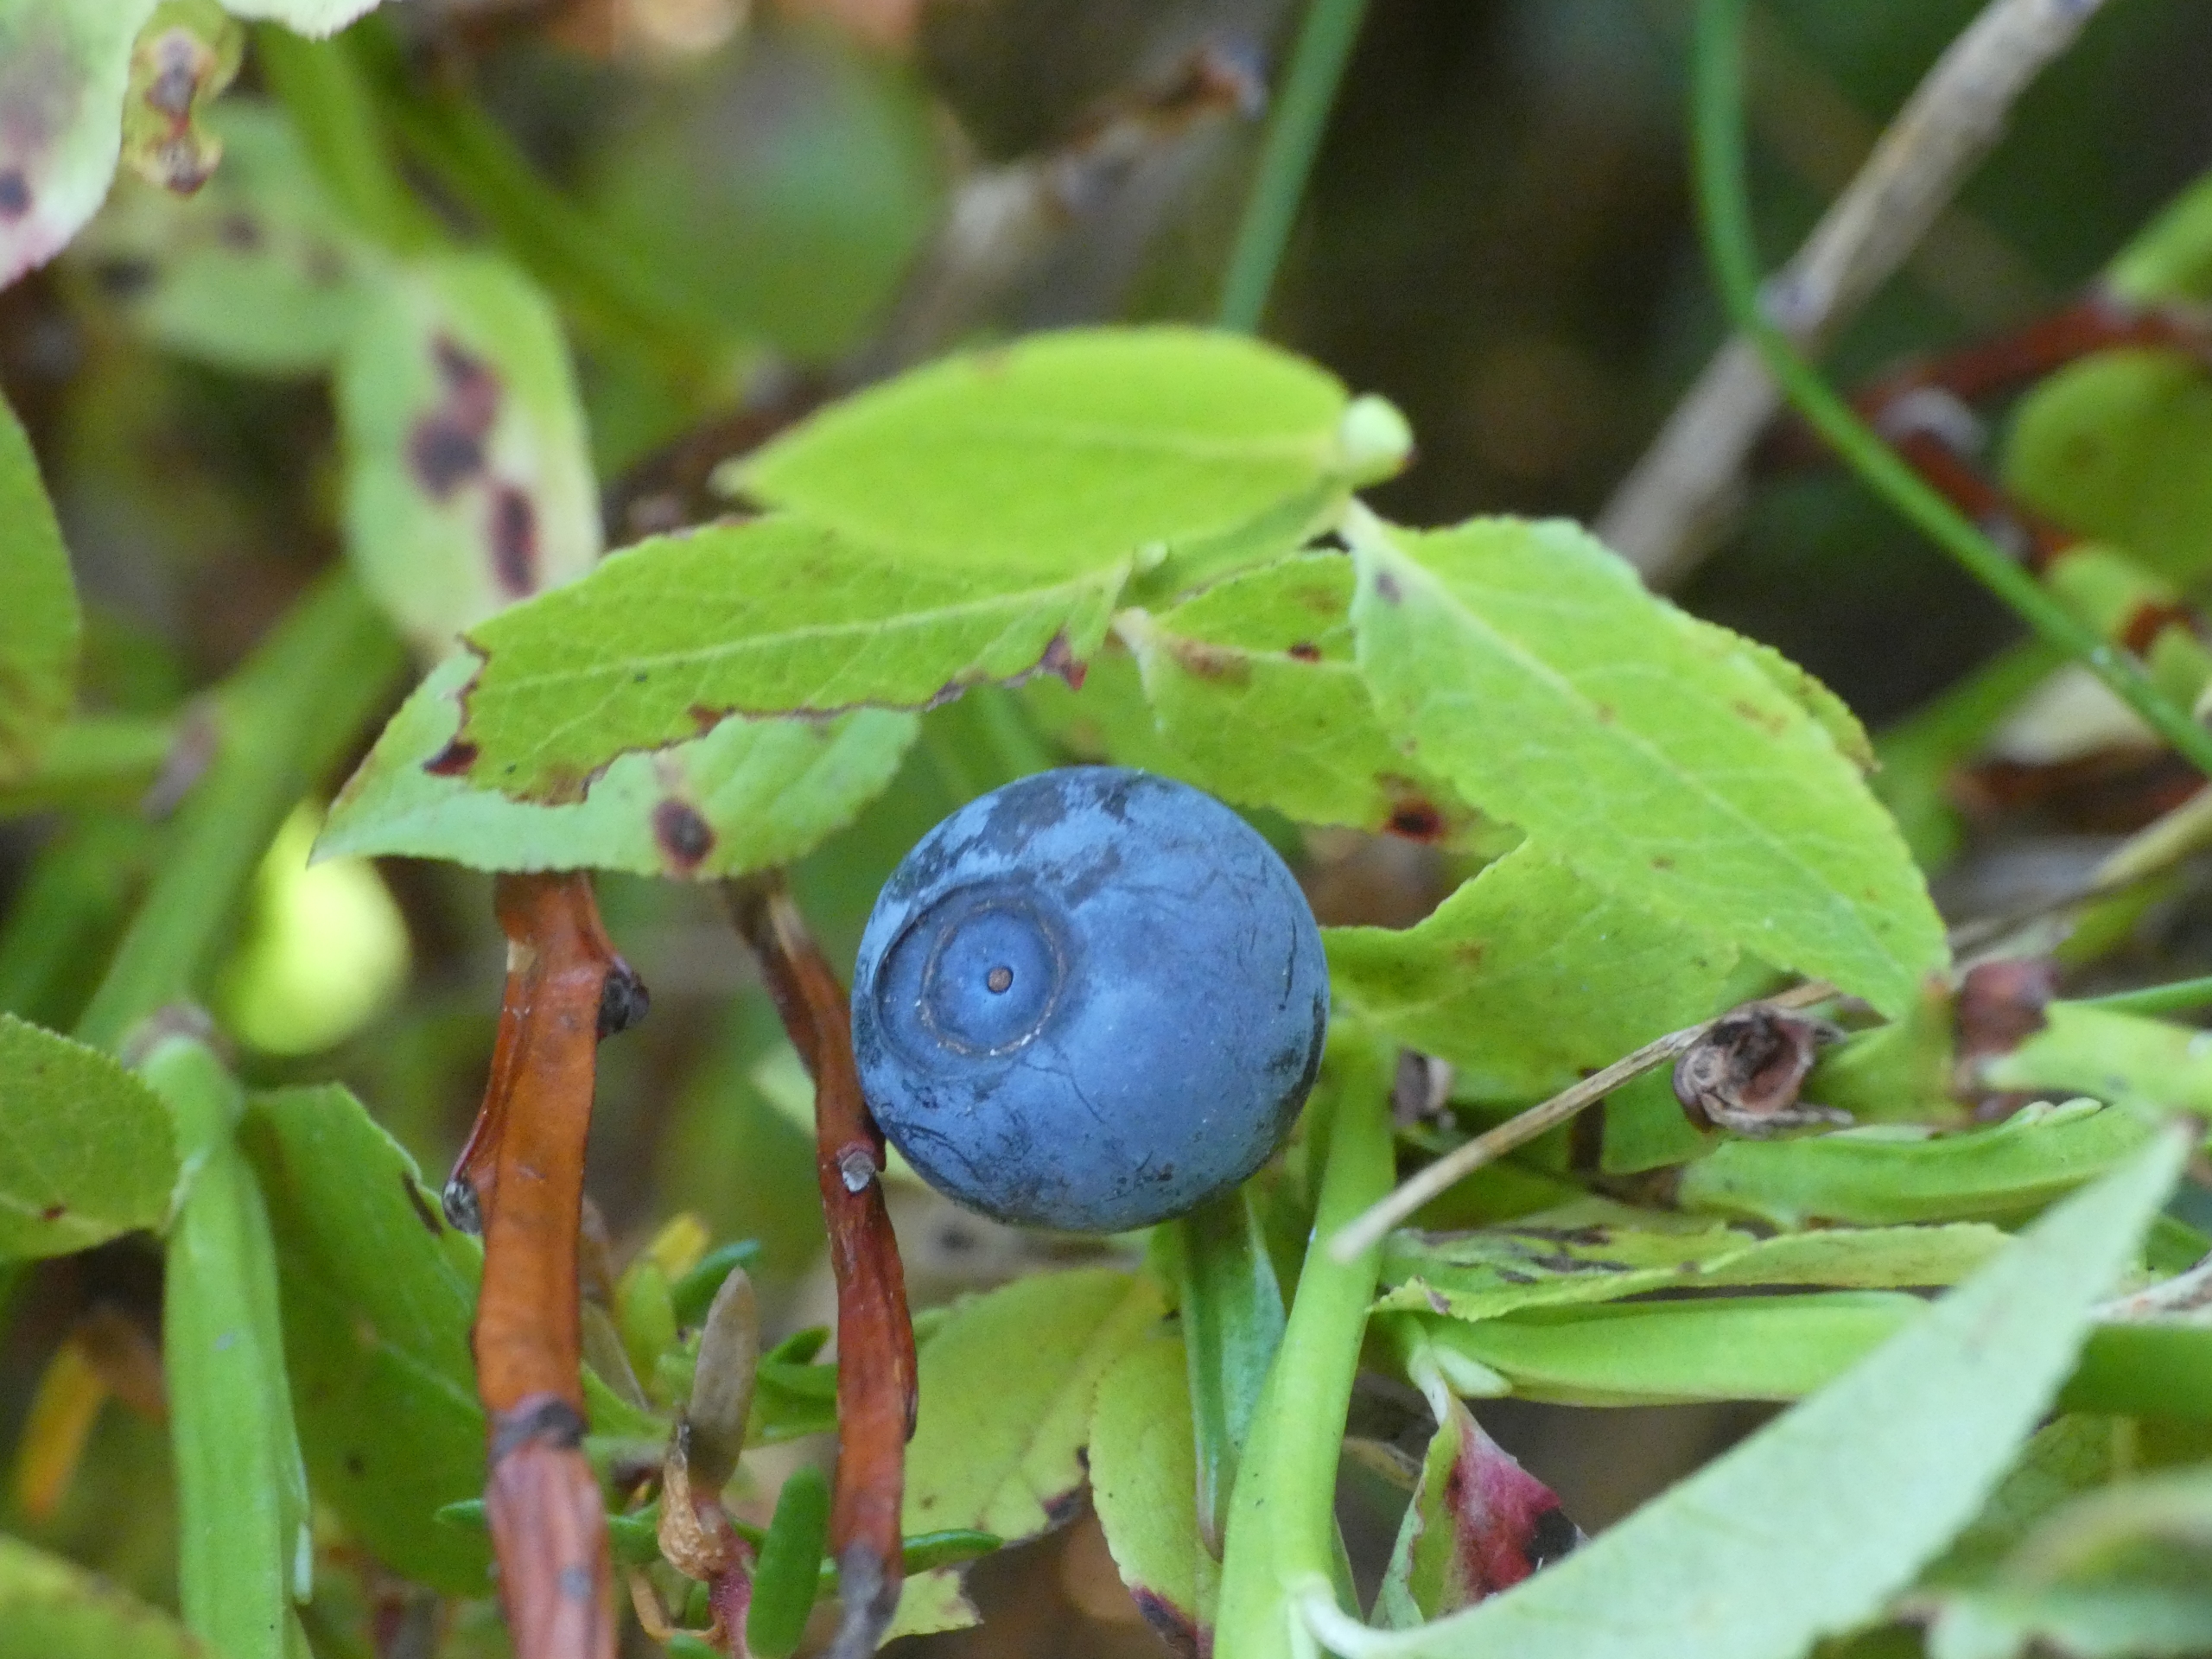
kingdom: Plantae
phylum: Tracheophyta
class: Magnoliopsida
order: Ericales
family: Ericaceae
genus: Vaccinium
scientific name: Vaccinium myrtillus
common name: Blåbær
